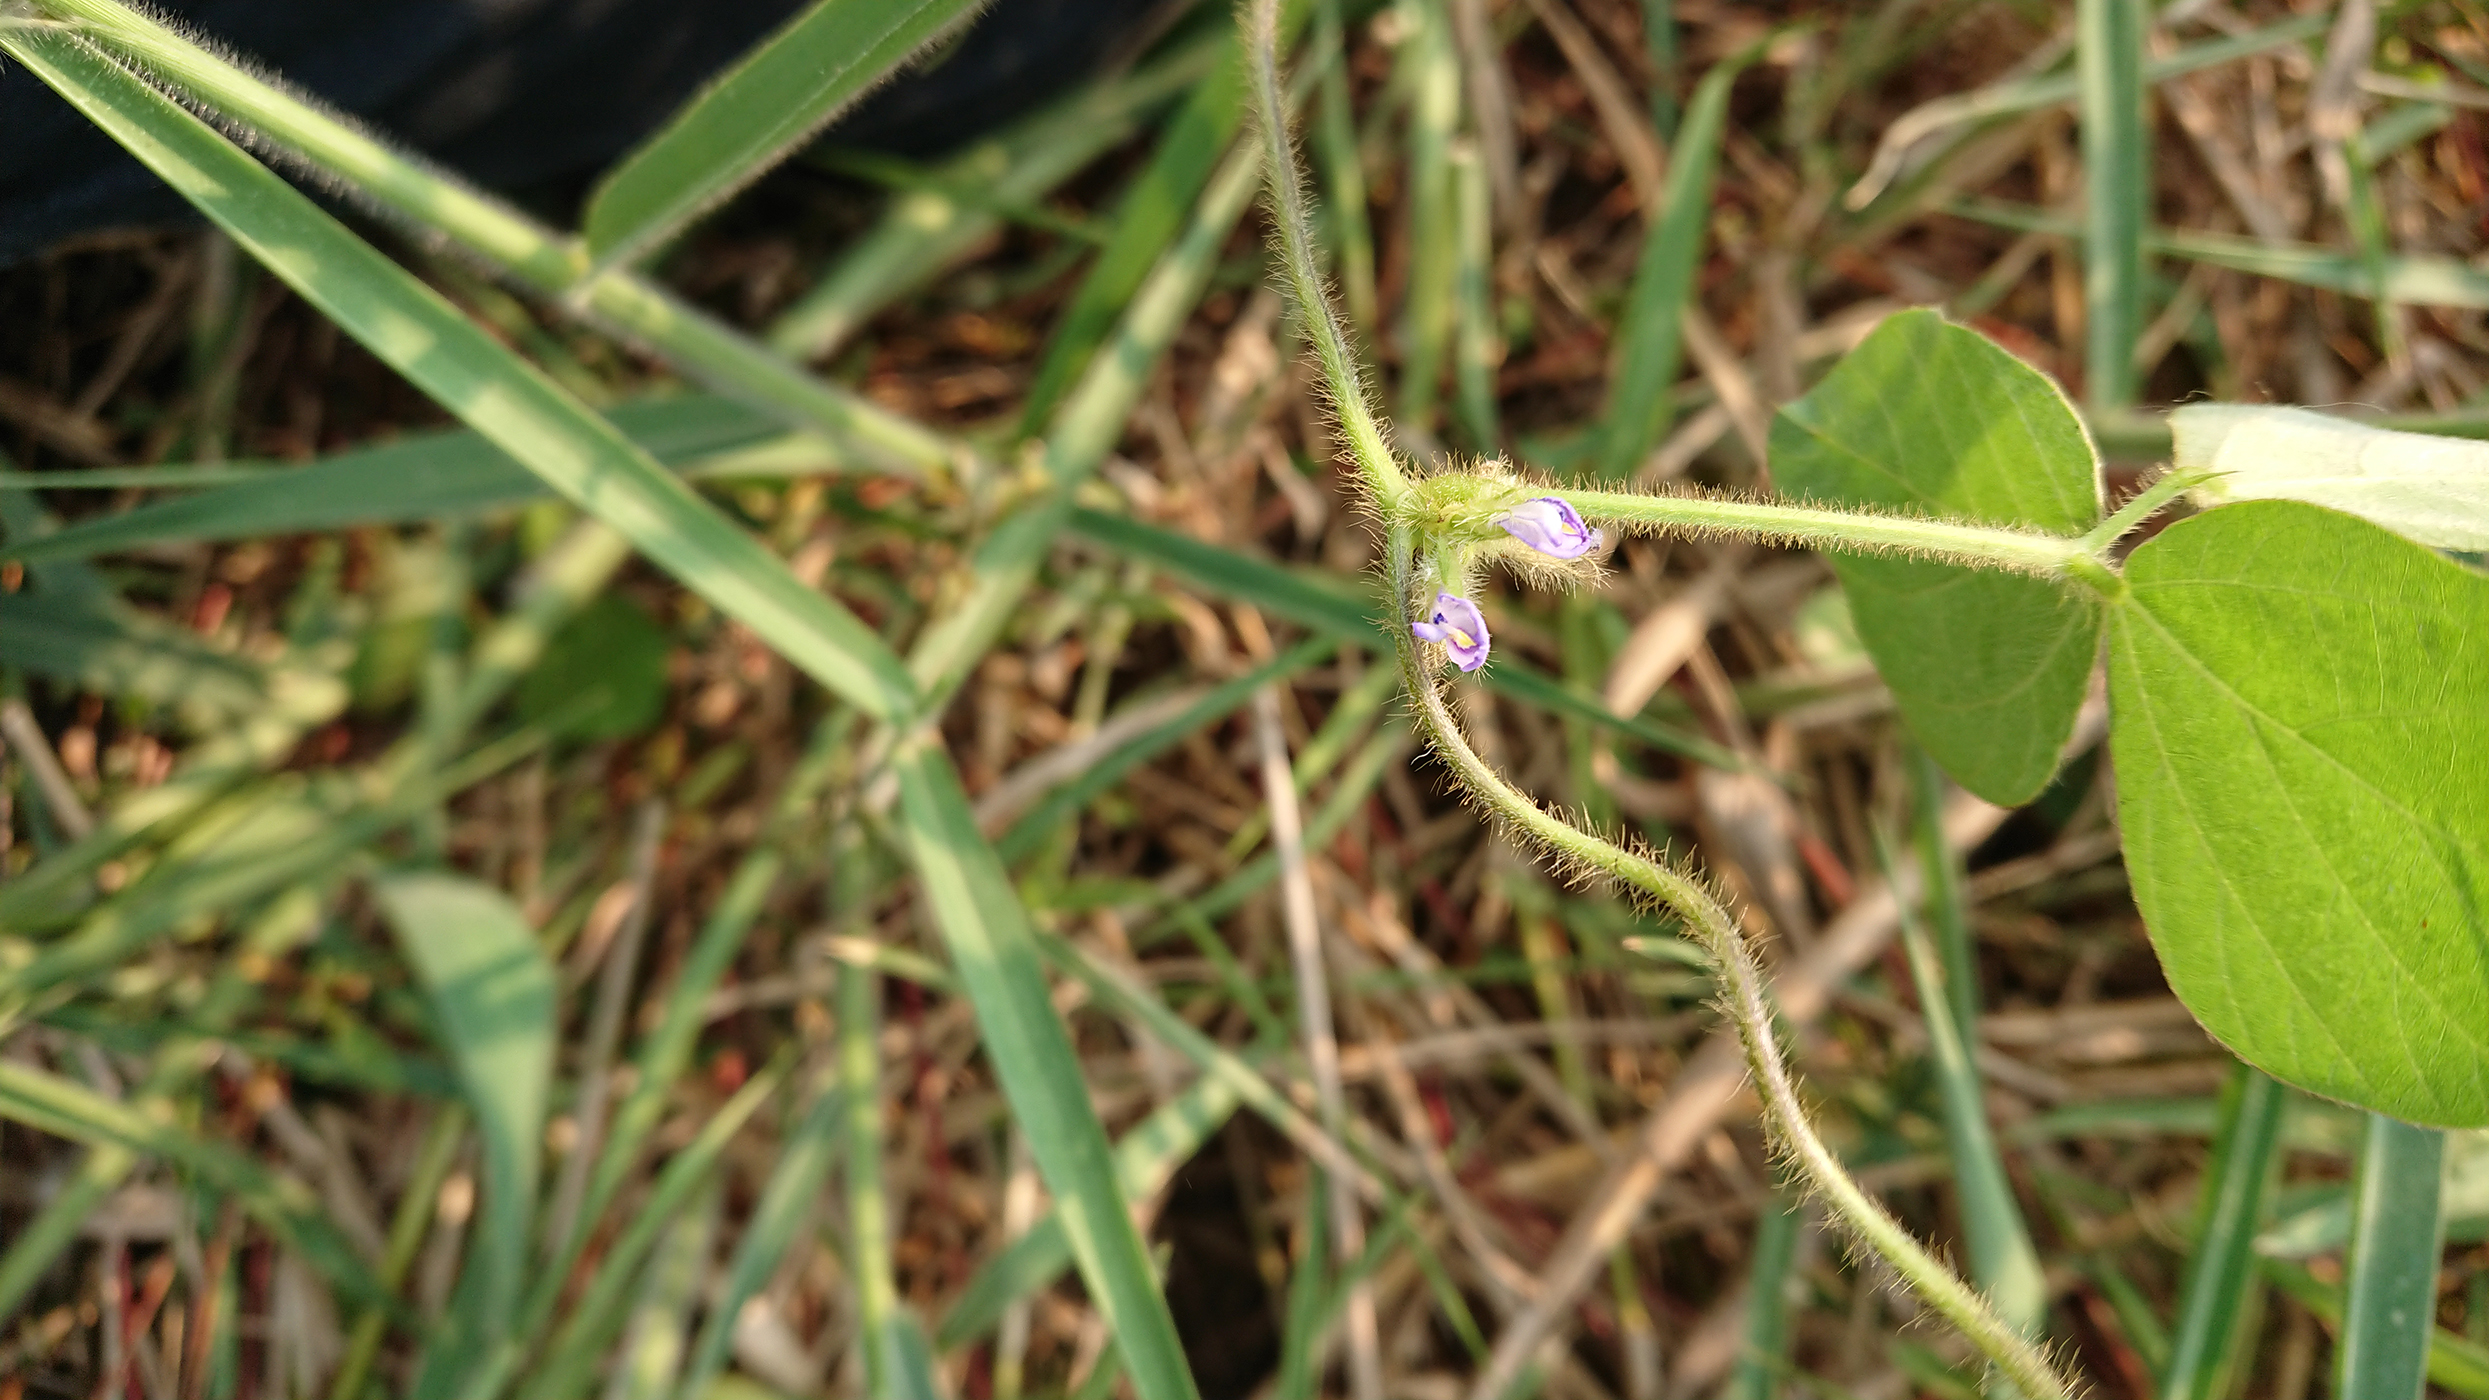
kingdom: Plantae
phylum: Tracheophyta
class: Magnoliopsida
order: Fabales
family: Fabaceae
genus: Calopogonium
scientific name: Calopogonium mucunoides
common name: Calopo
